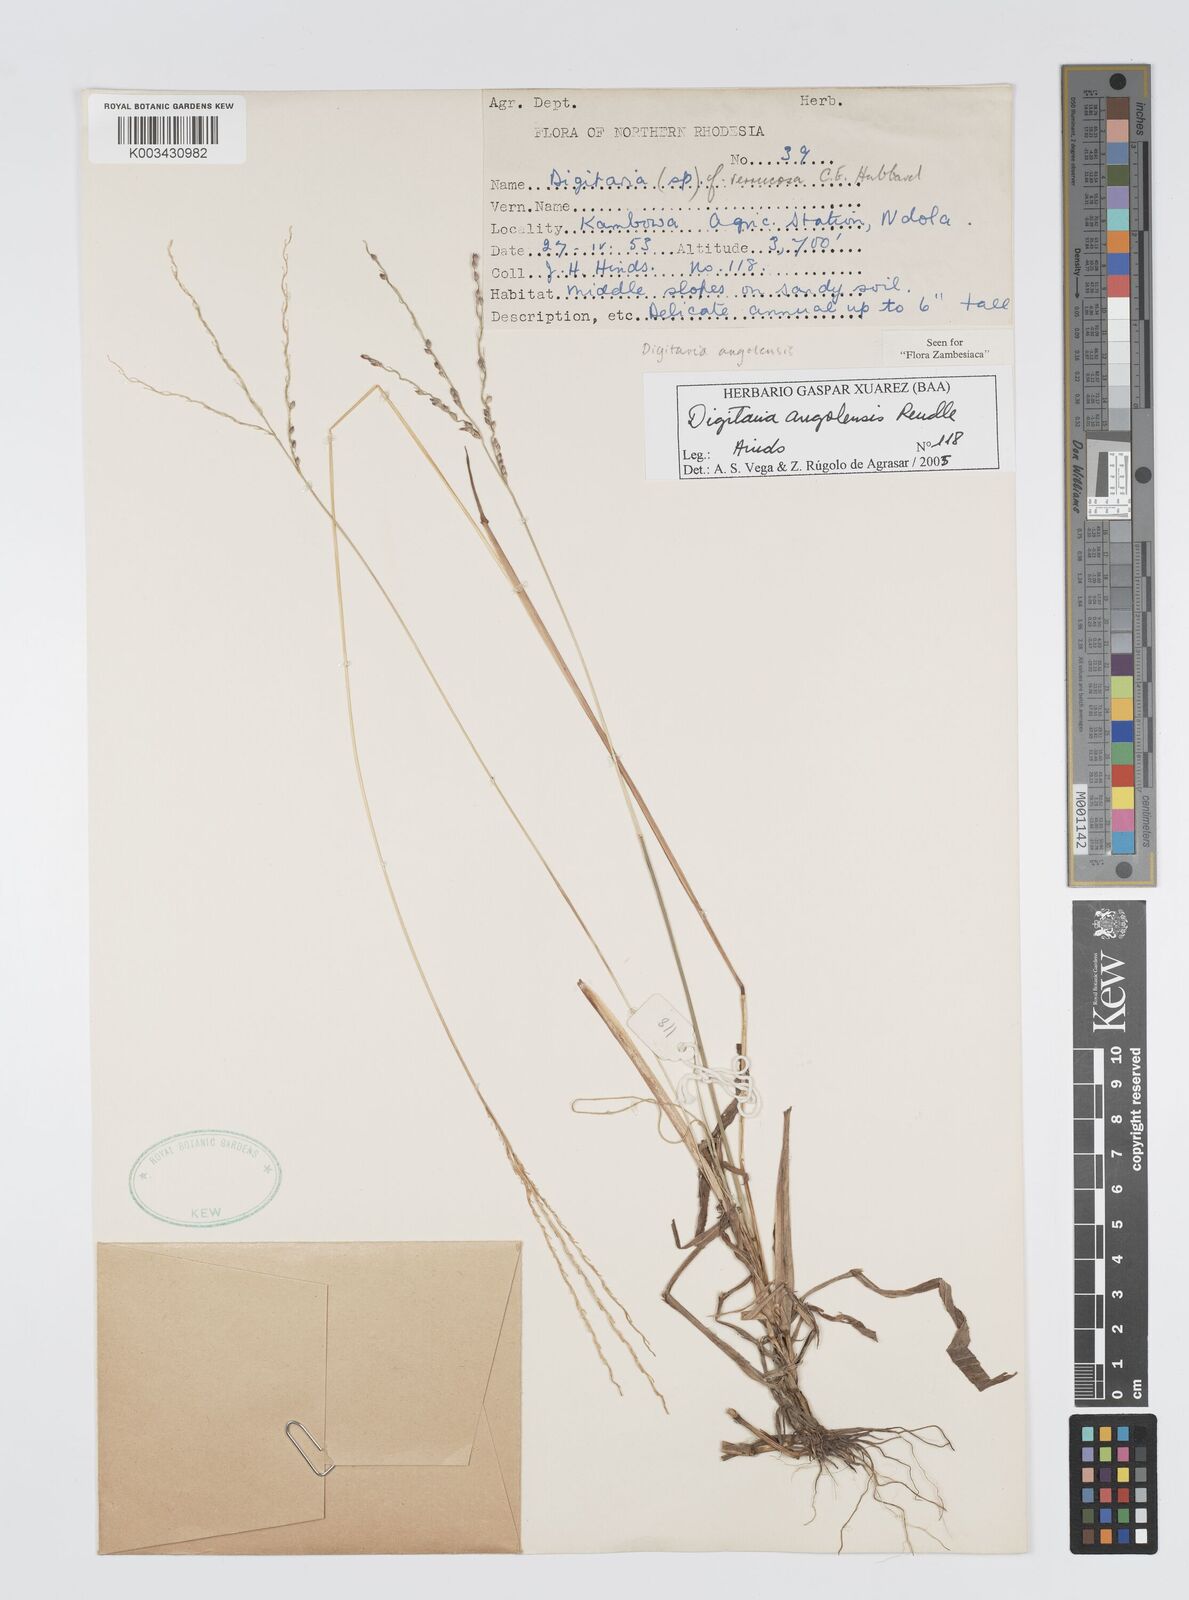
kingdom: Plantae
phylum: Tracheophyta
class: Liliopsida
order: Poales
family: Poaceae
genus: Digitaria
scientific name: Digitaria angolensis
